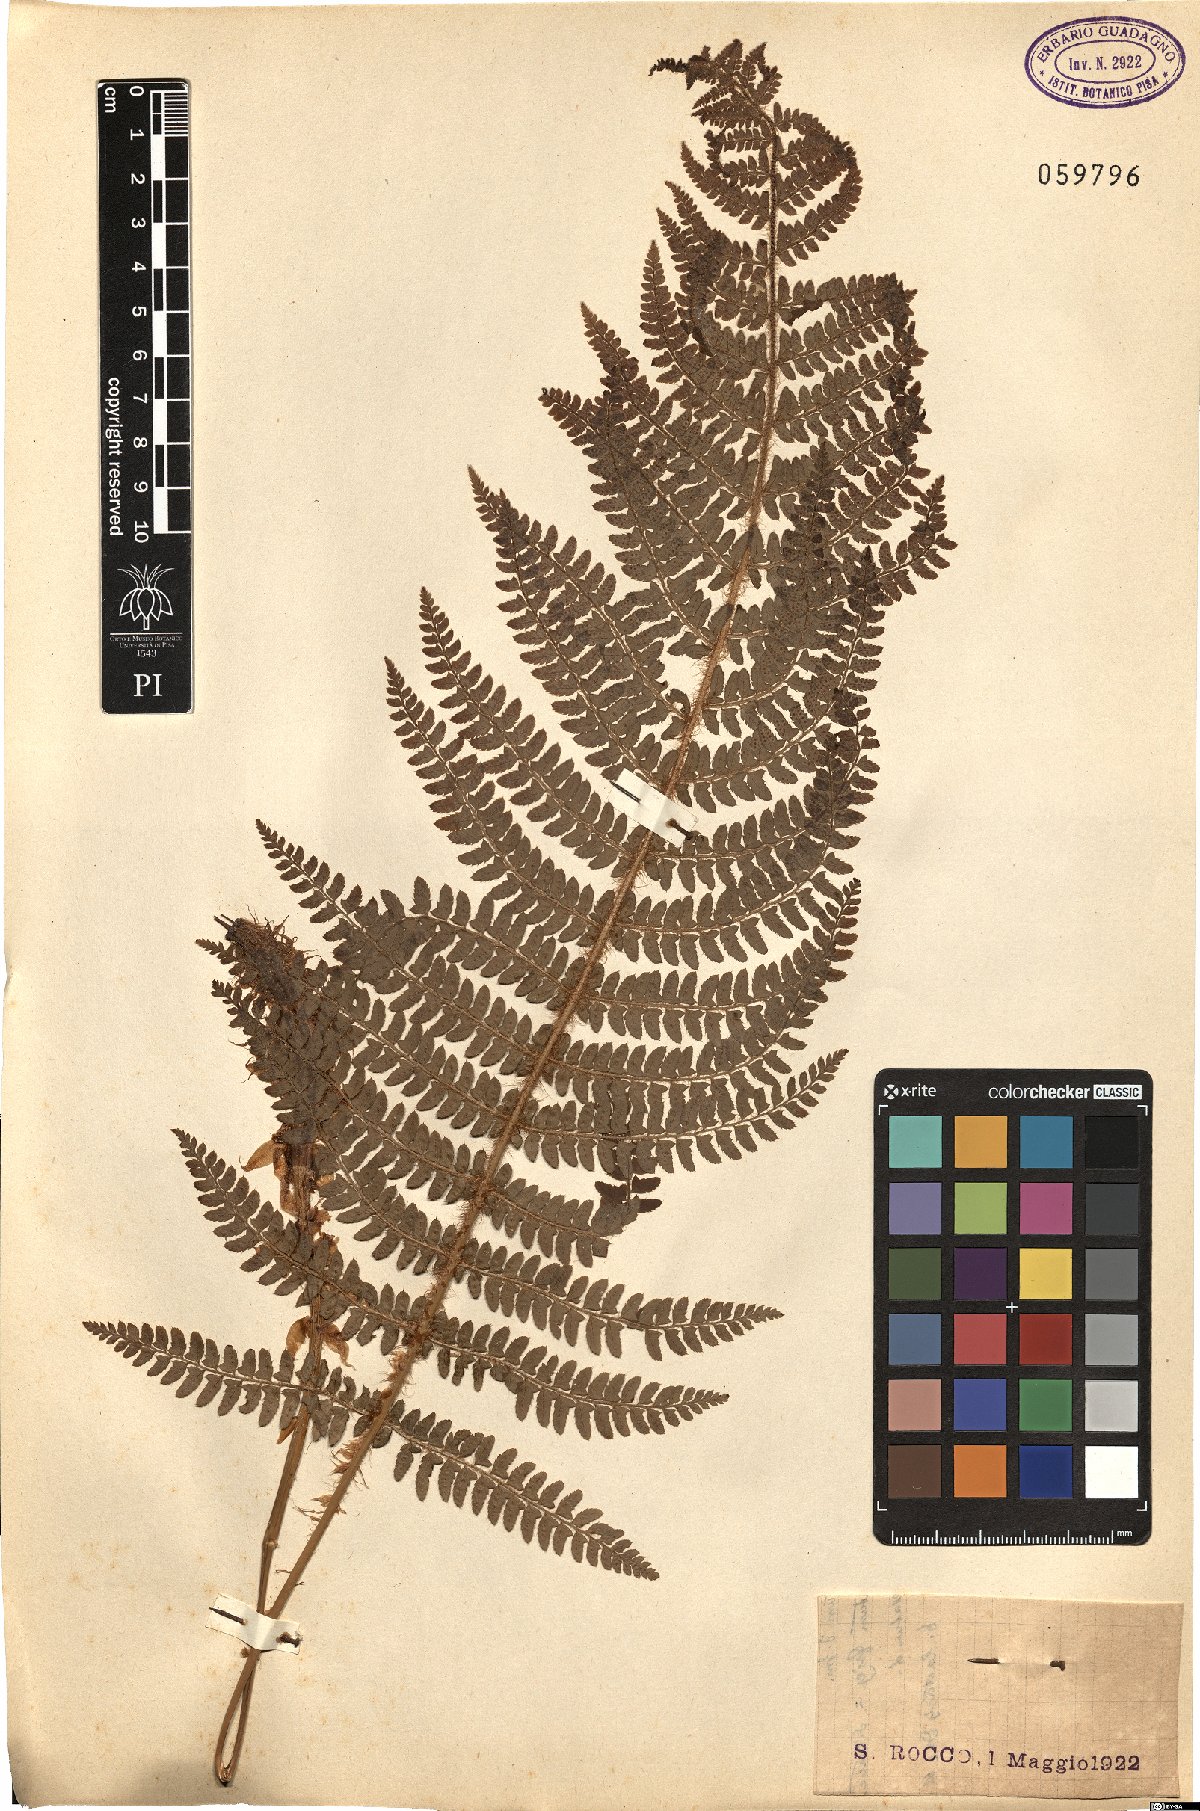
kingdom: Plantae
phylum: Tracheophyta
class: Polypodiopsida
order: Polypodiales
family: Dryopteridaceae
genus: Polystichum
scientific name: Polystichum
